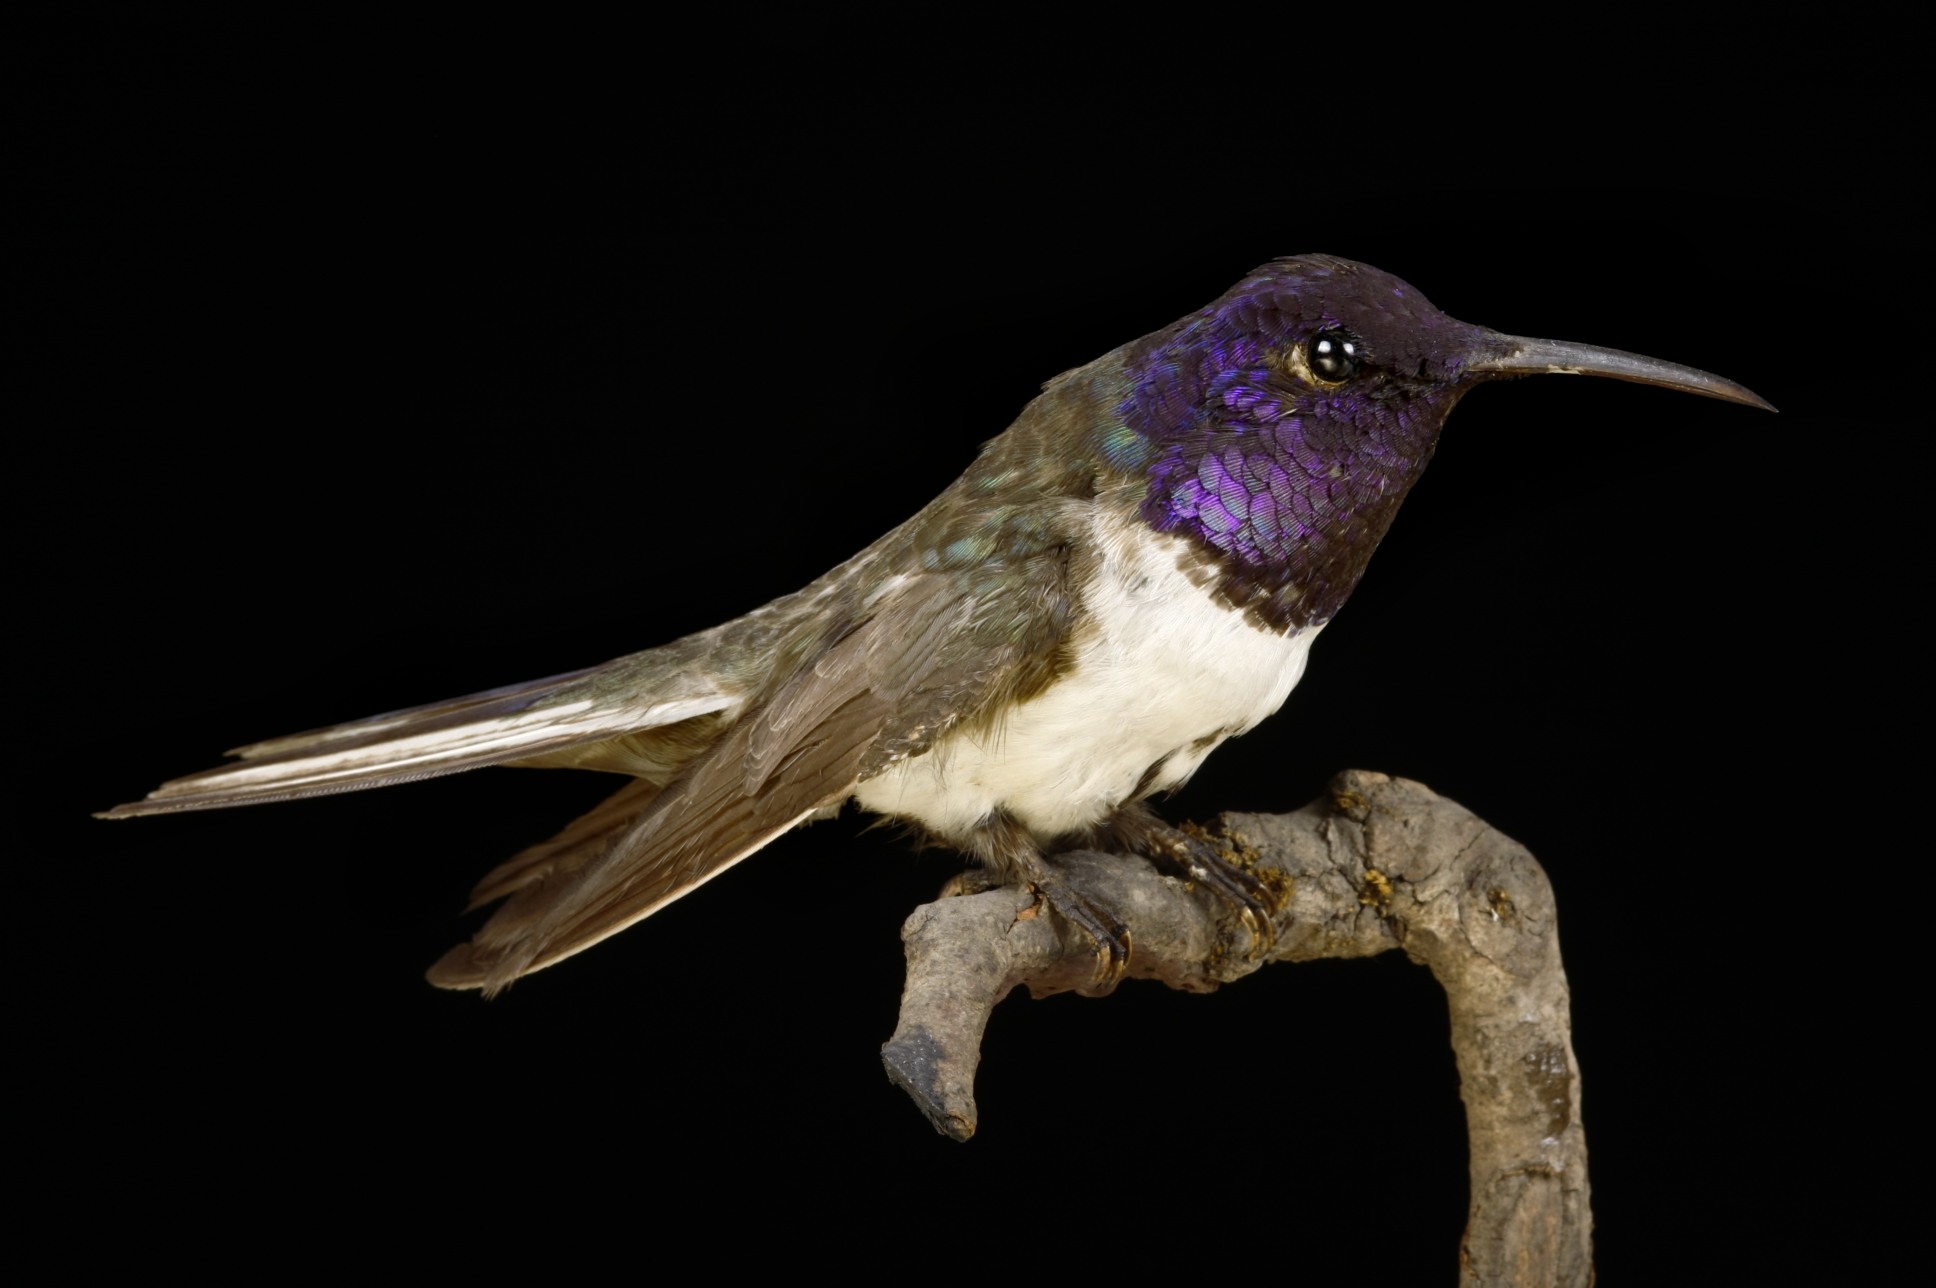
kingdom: Animalia
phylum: Chordata
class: Aves
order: Apodiformes
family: Trochilidae
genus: Oreotrochilus
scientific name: Oreotrochilus chimborazo
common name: Ecuadorian hillstar
